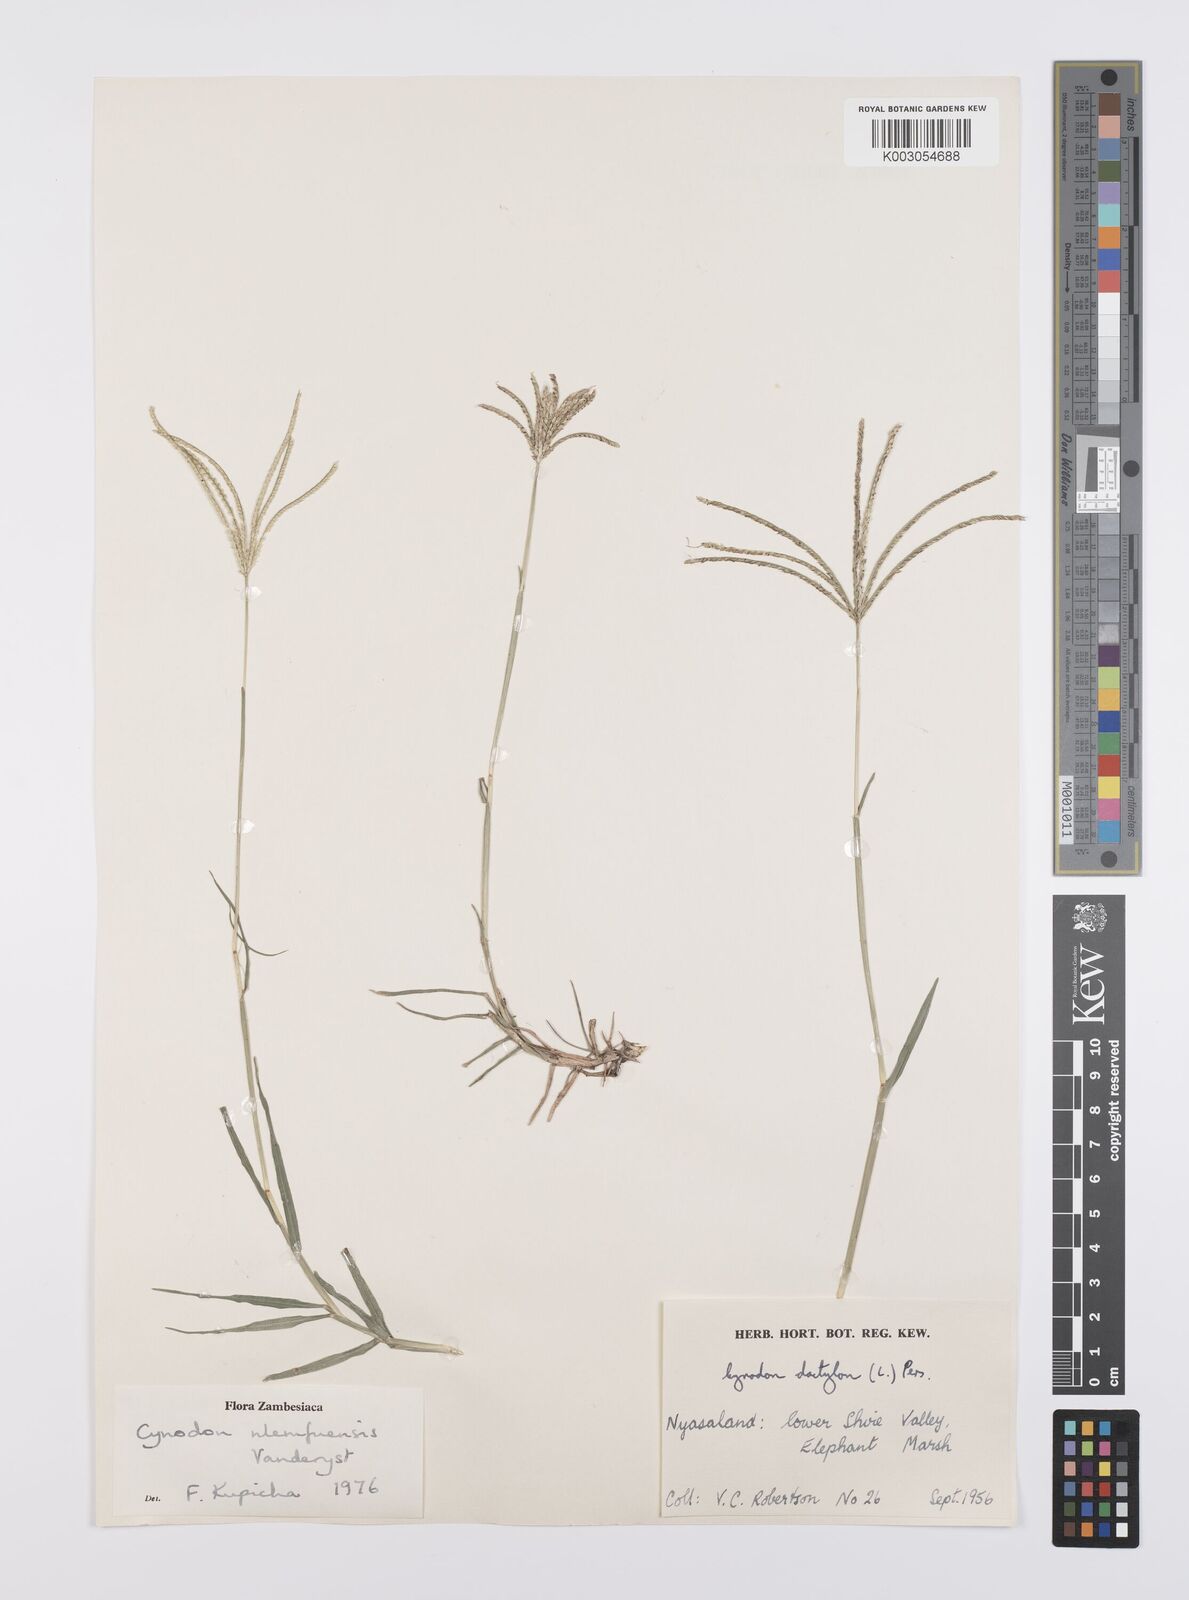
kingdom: Plantae
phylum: Tracheophyta
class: Liliopsida
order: Poales
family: Poaceae
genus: Cynodon
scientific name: Cynodon nlemfuensis
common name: African bermudagrass
